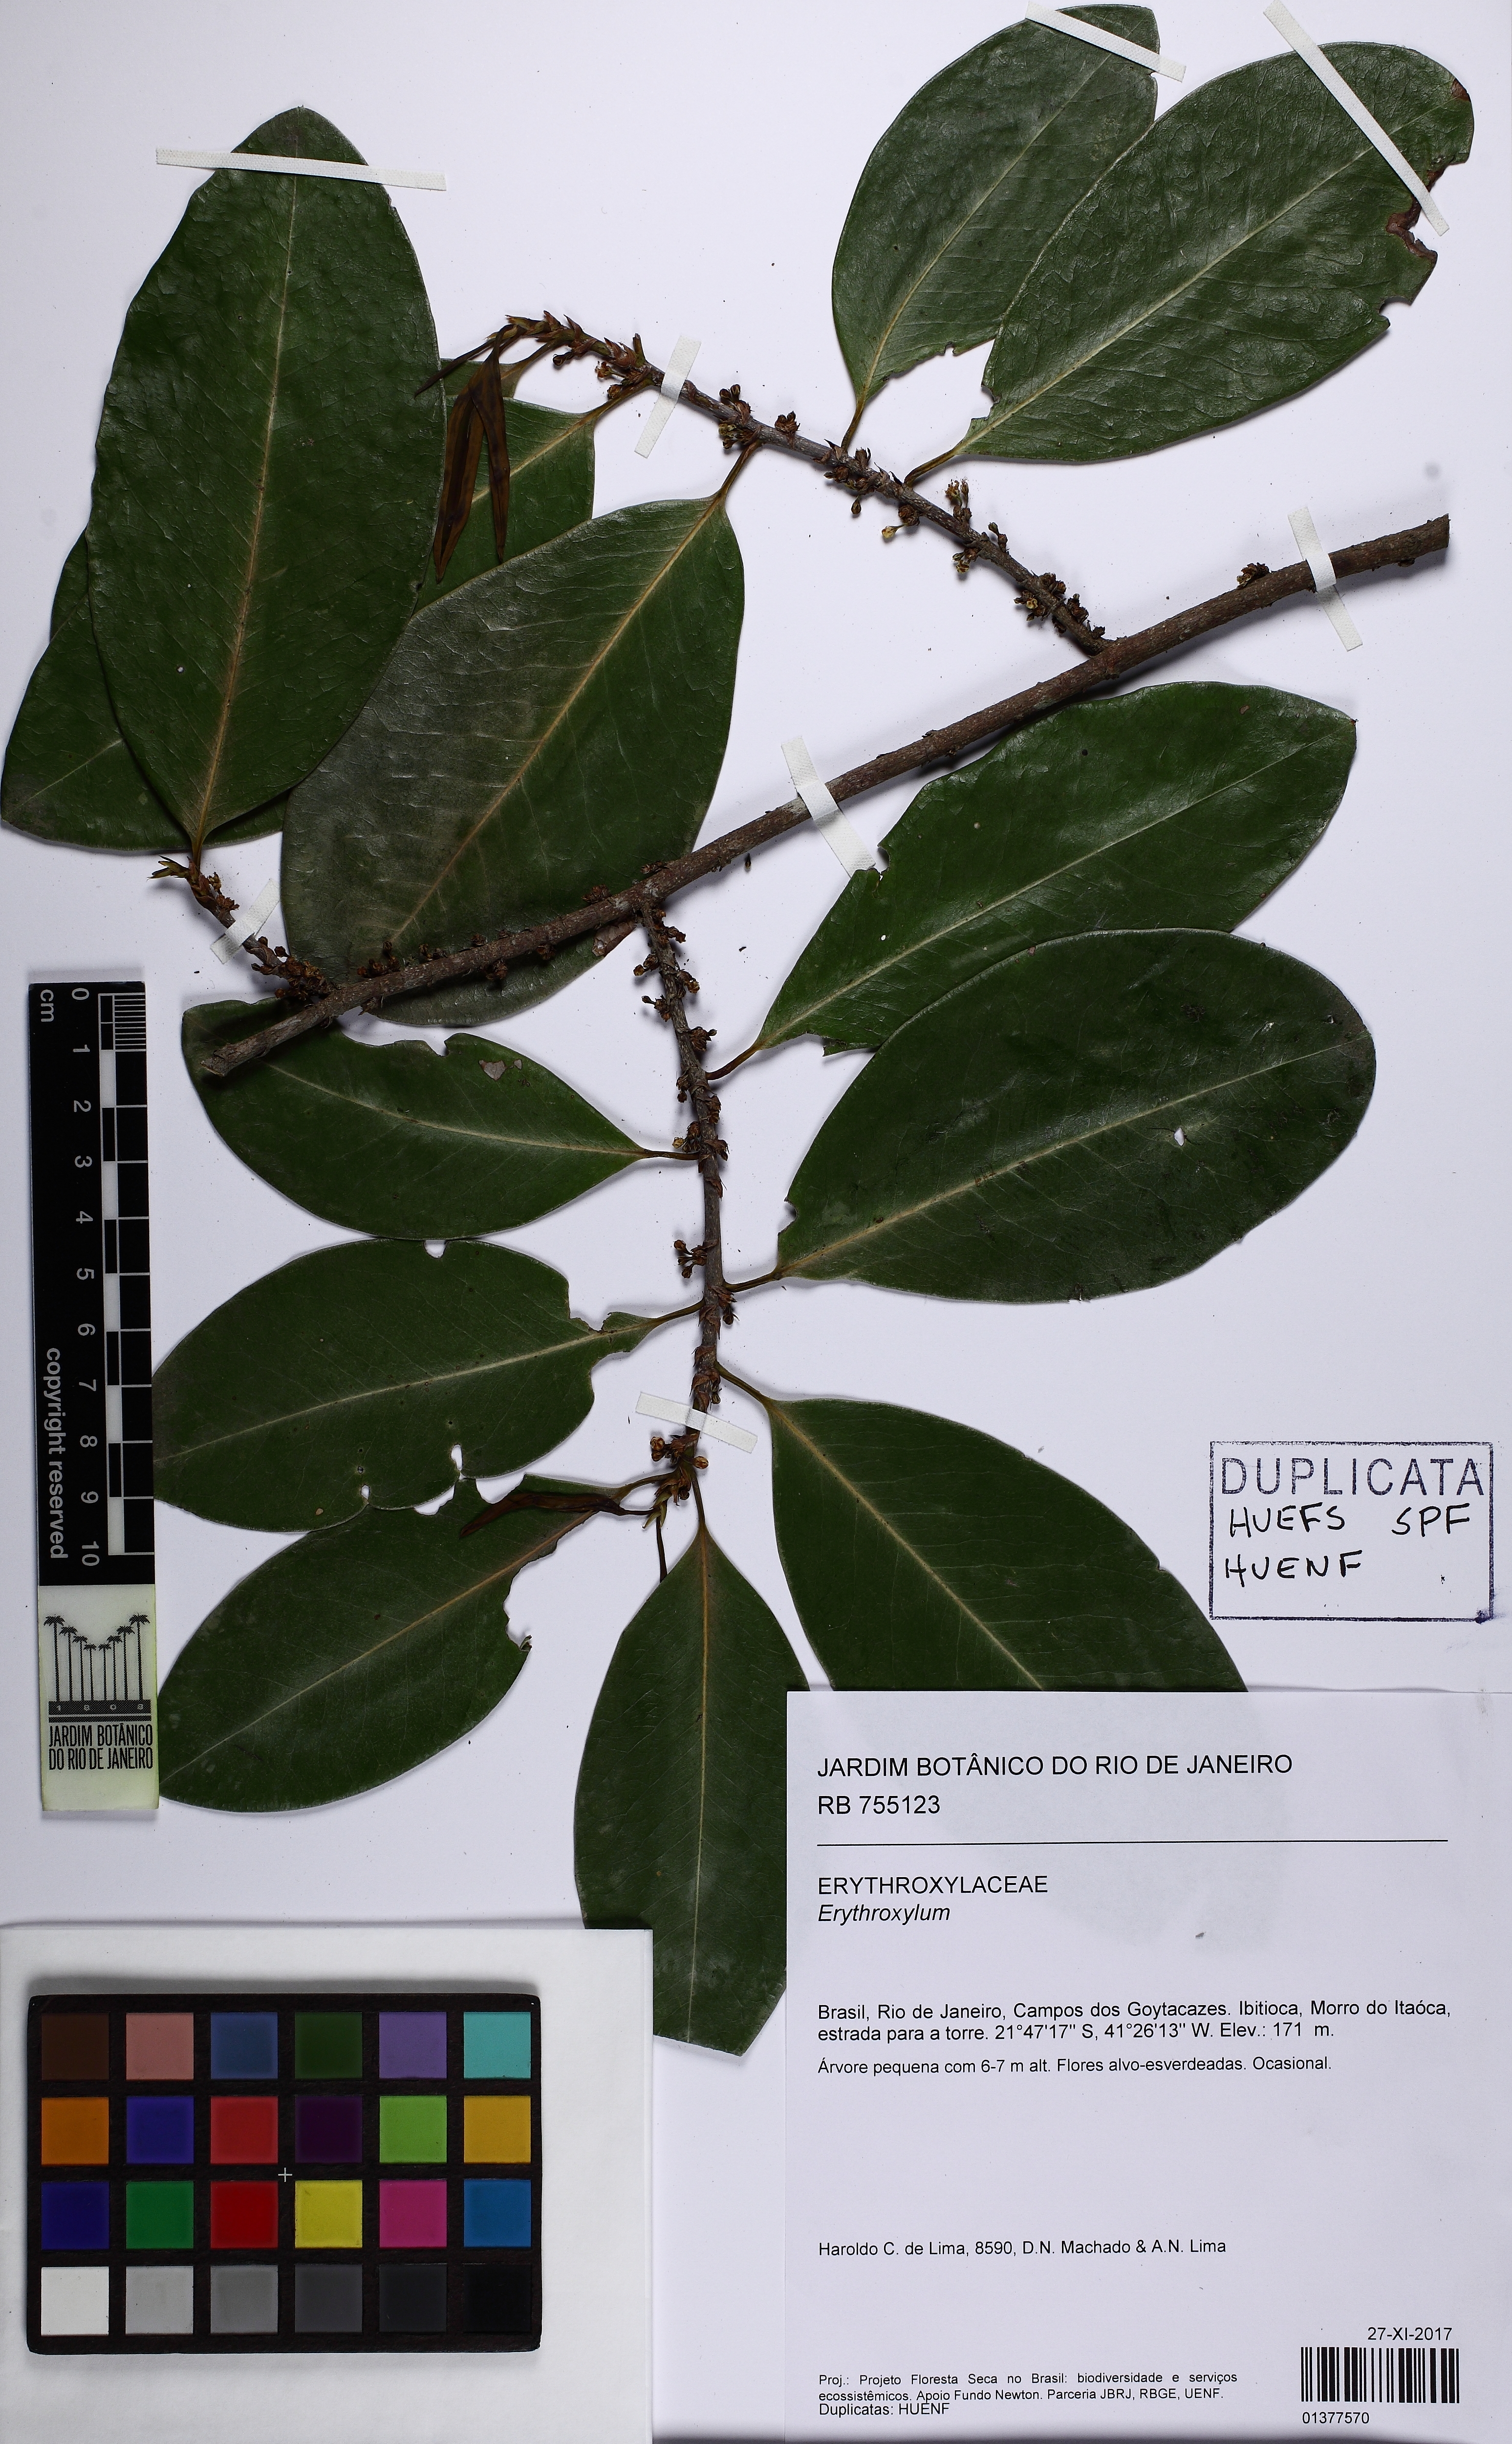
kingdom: Plantae
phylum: Tracheophyta
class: Magnoliopsida
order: Malpighiales
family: Erythroxylaceae
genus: Erythroxylum
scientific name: Erythroxylum
